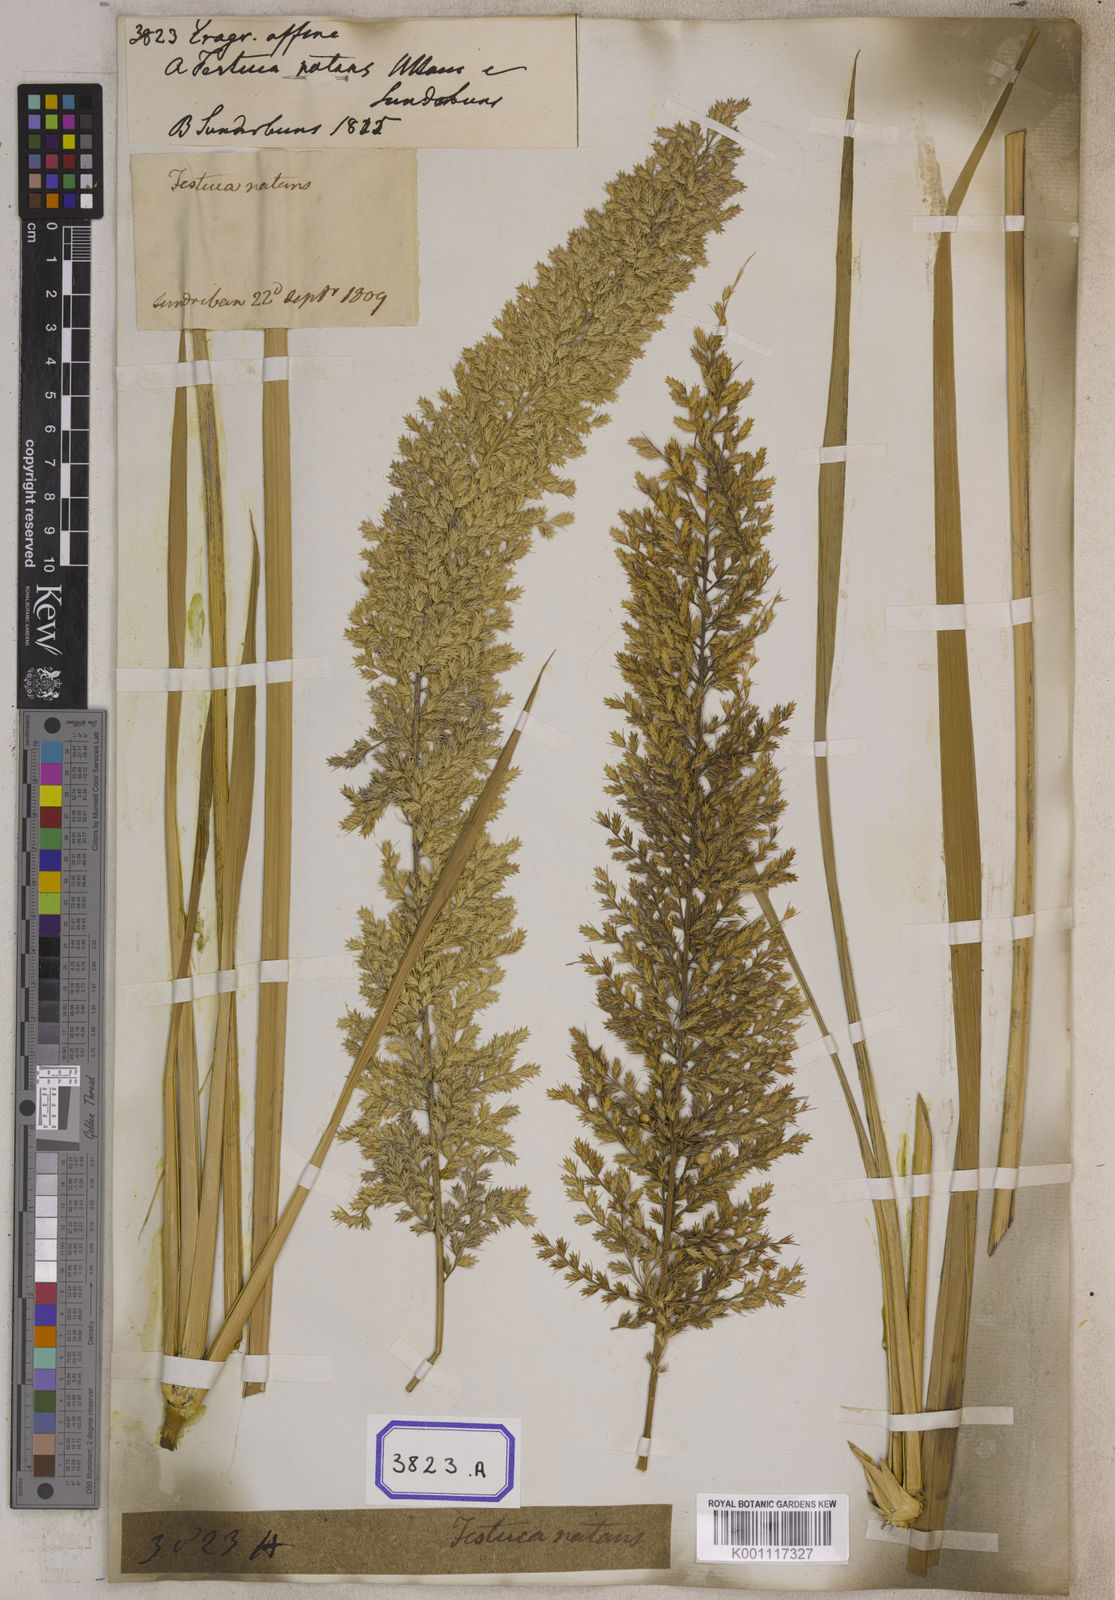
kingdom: Plantae
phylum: Tracheophyta
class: Liliopsida
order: Poales
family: Poaceae
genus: Eragrostis
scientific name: Eragrostis
